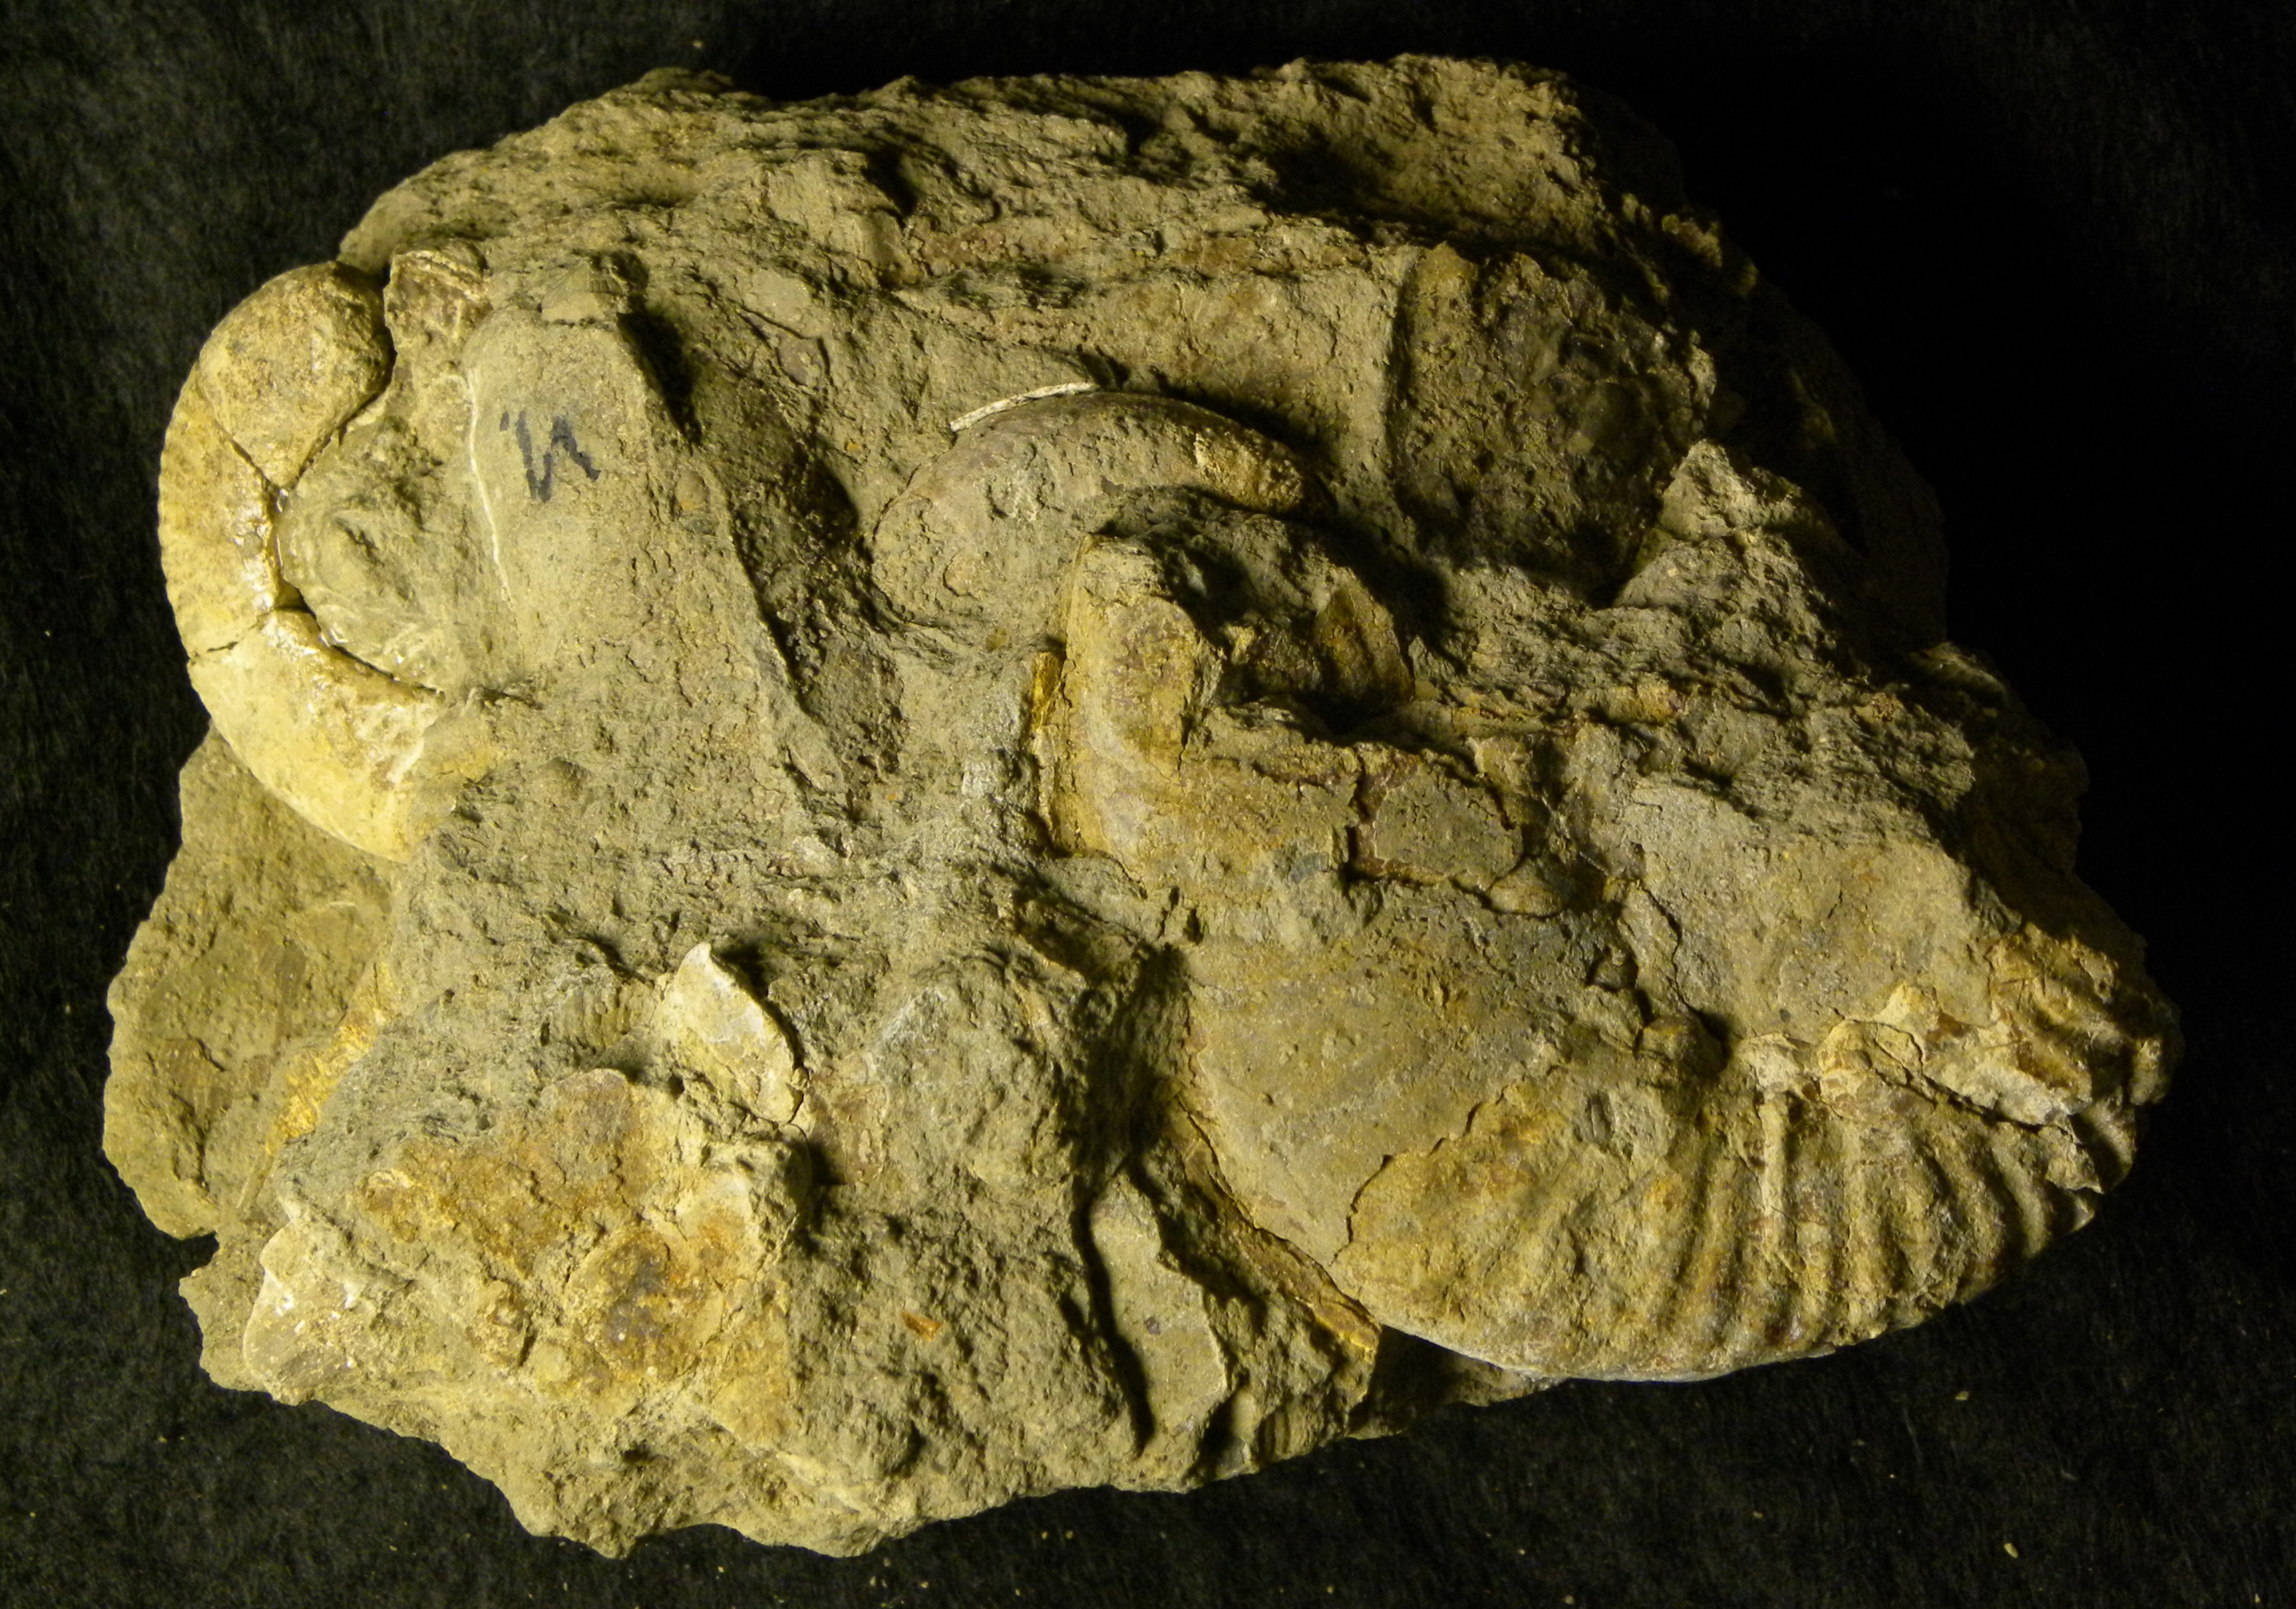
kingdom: Animalia
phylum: Mollusca
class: Cephalopoda
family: Phymatoceratidae
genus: Haugia
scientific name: Haugia jugosa
